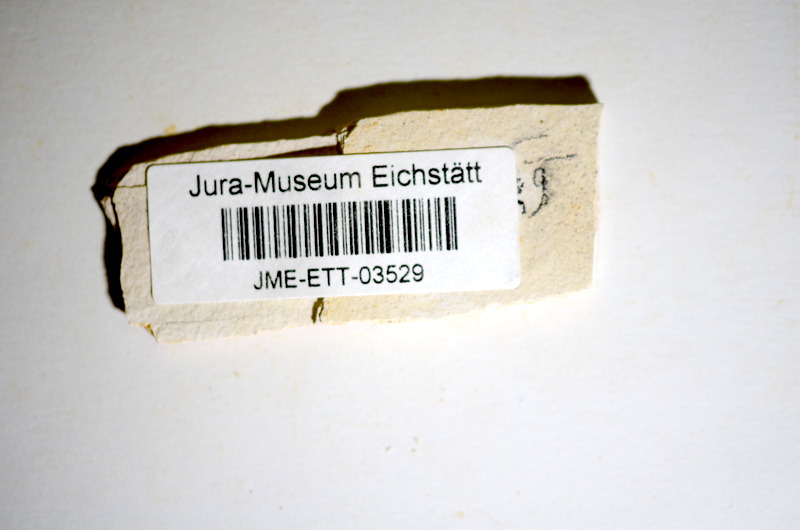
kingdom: Animalia
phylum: Chordata
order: Salmoniformes
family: Orthogonikleithridae
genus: Orthogonikleithrus
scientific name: Orthogonikleithrus hoelli
